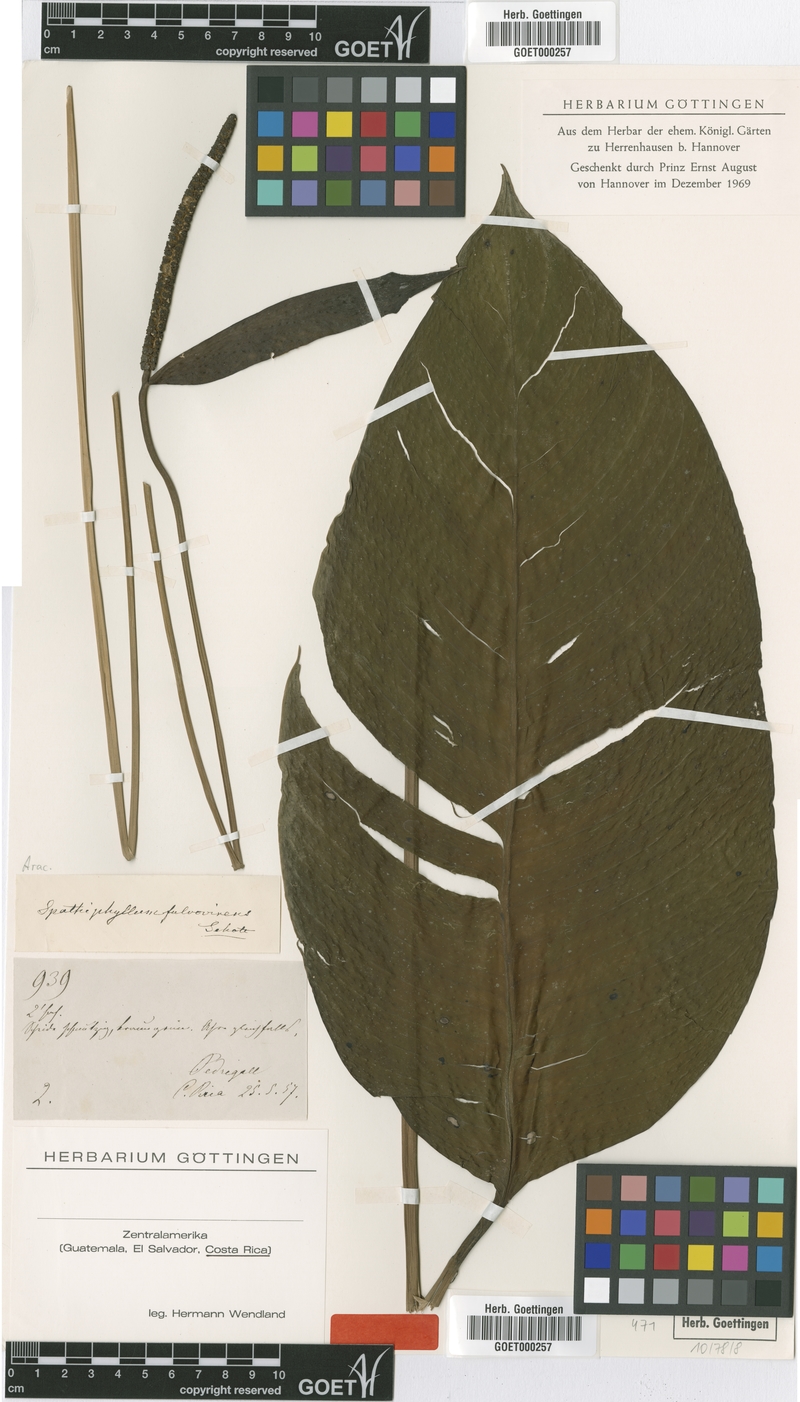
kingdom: Plantae
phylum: Tracheophyta
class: Liliopsida
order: Alismatales
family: Araceae
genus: Spathiphyllum
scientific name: Spathiphyllum fulvovirens
